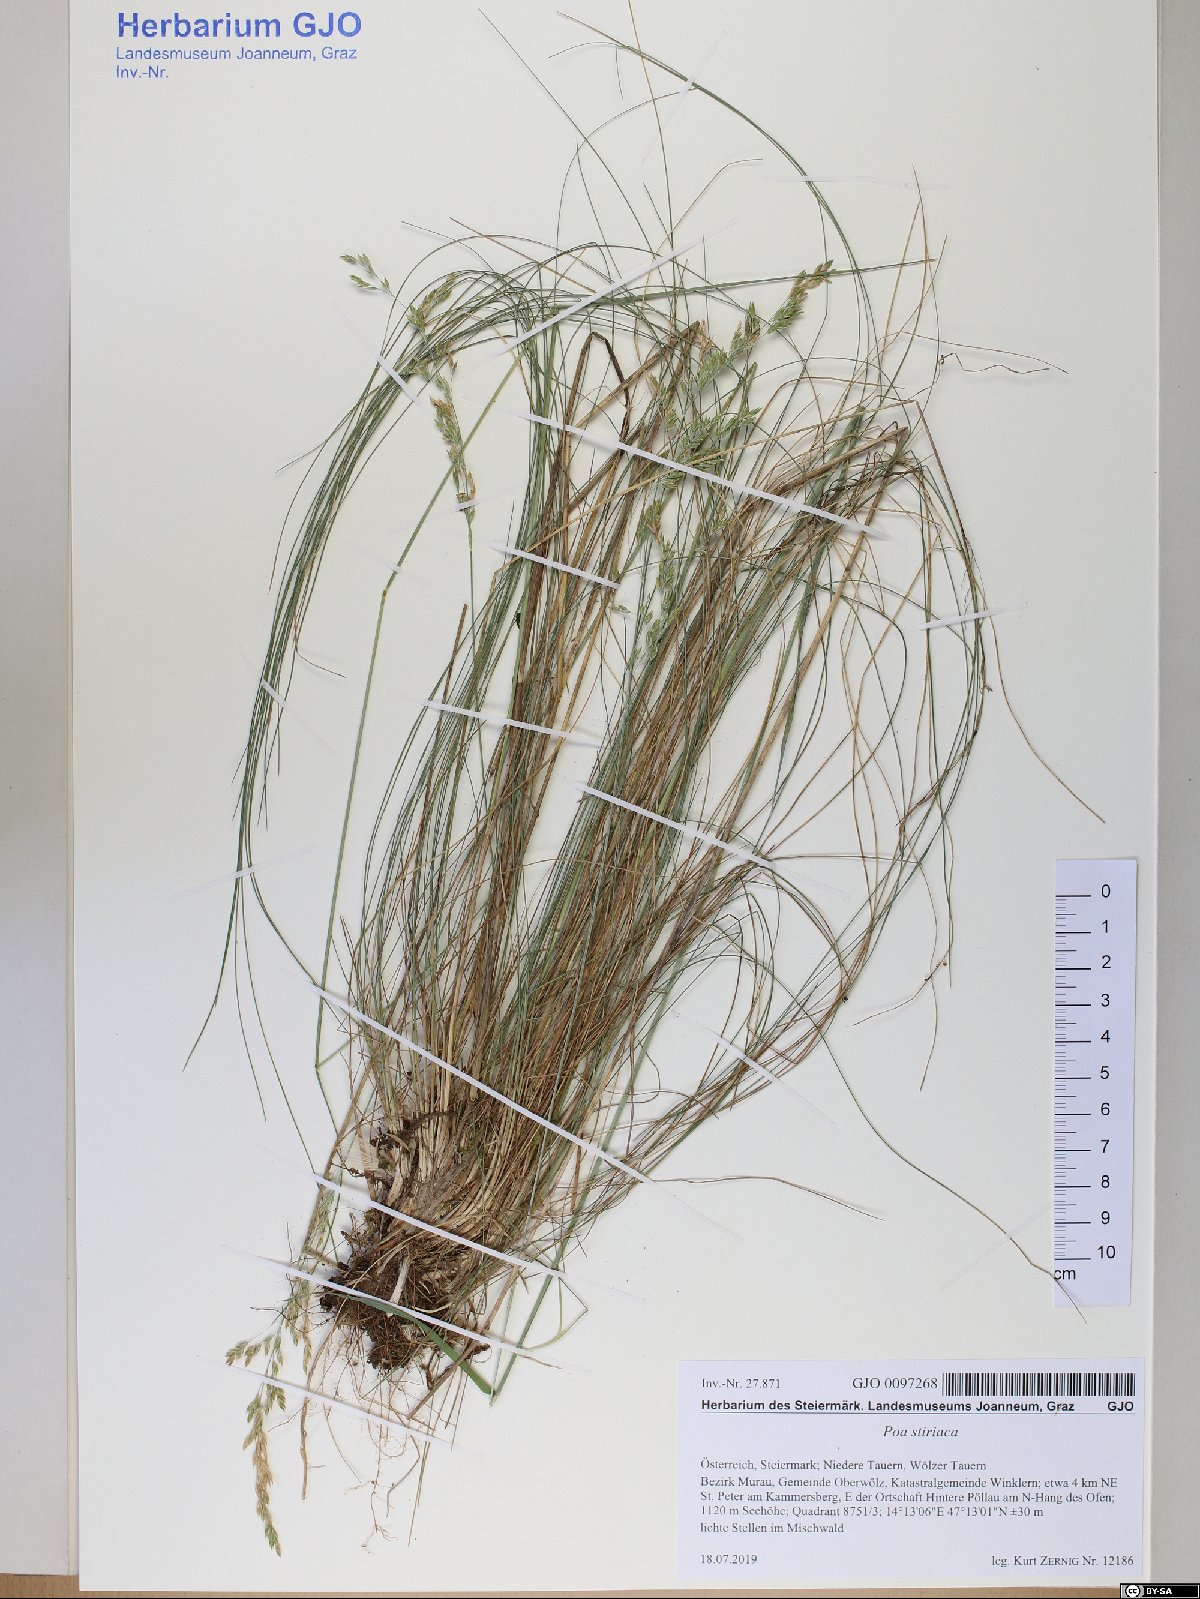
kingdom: Plantae
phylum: Tracheophyta
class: Liliopsida
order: Poales
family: Poaceae
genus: Poa
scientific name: Poa stiriaca
